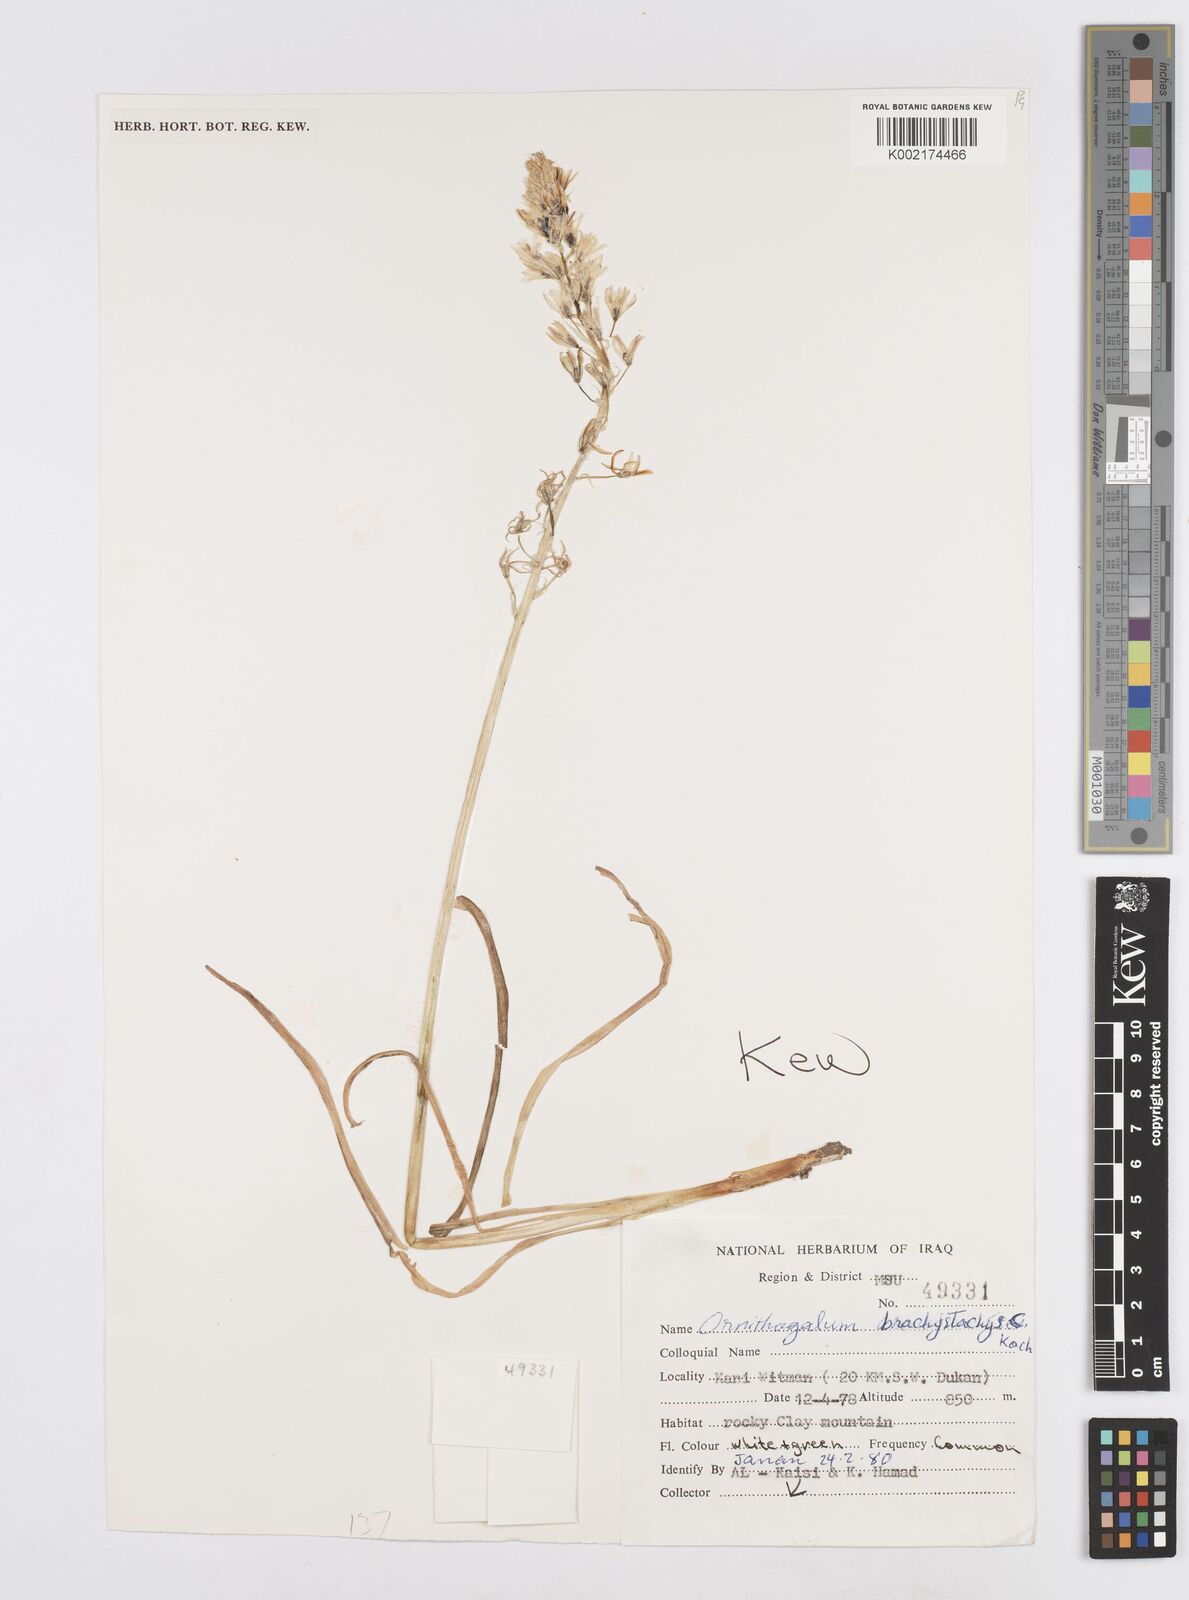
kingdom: Plantae
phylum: Tracheophyta
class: Liliopsida
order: Asparagales
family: Asparagaceae
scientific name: Asparagaceae
